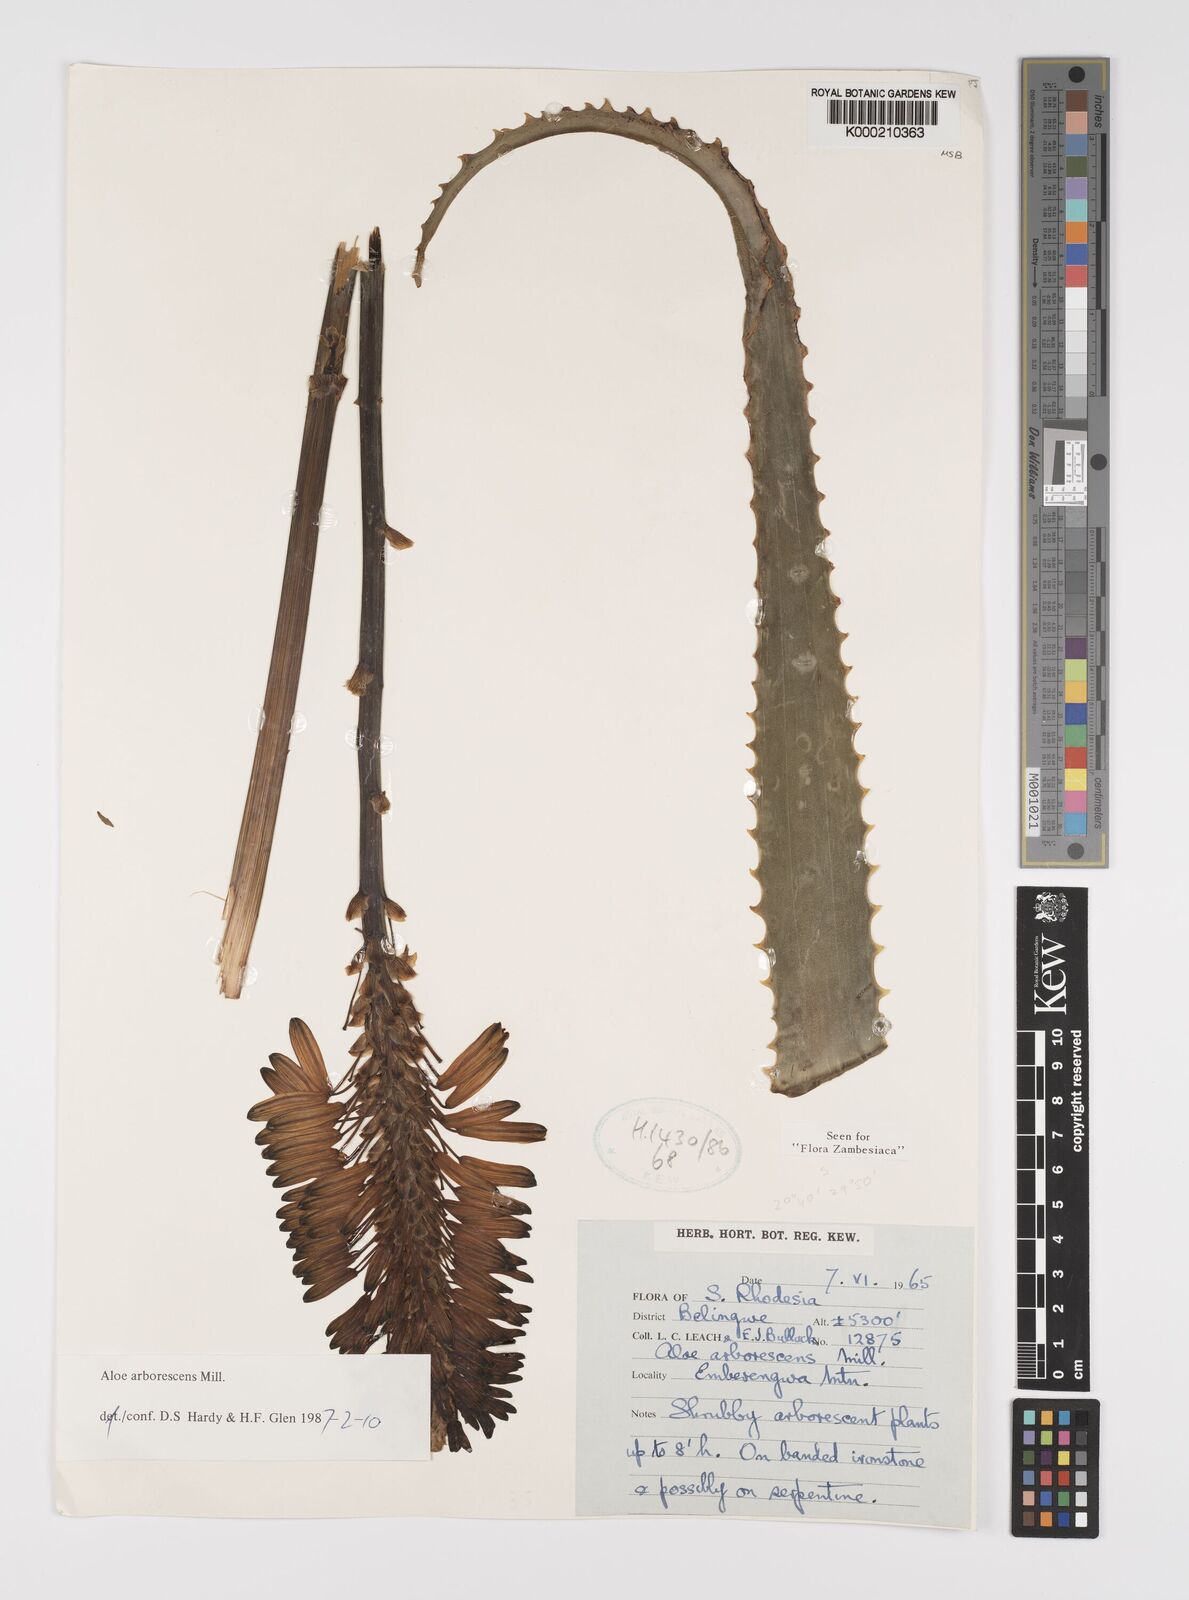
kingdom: Plantae
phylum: Tracheophyta
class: Liliopsida
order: Asparagales
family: Asphodelaceae
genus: Aloe
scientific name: Aloe arborescens
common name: Candelabra aloe
